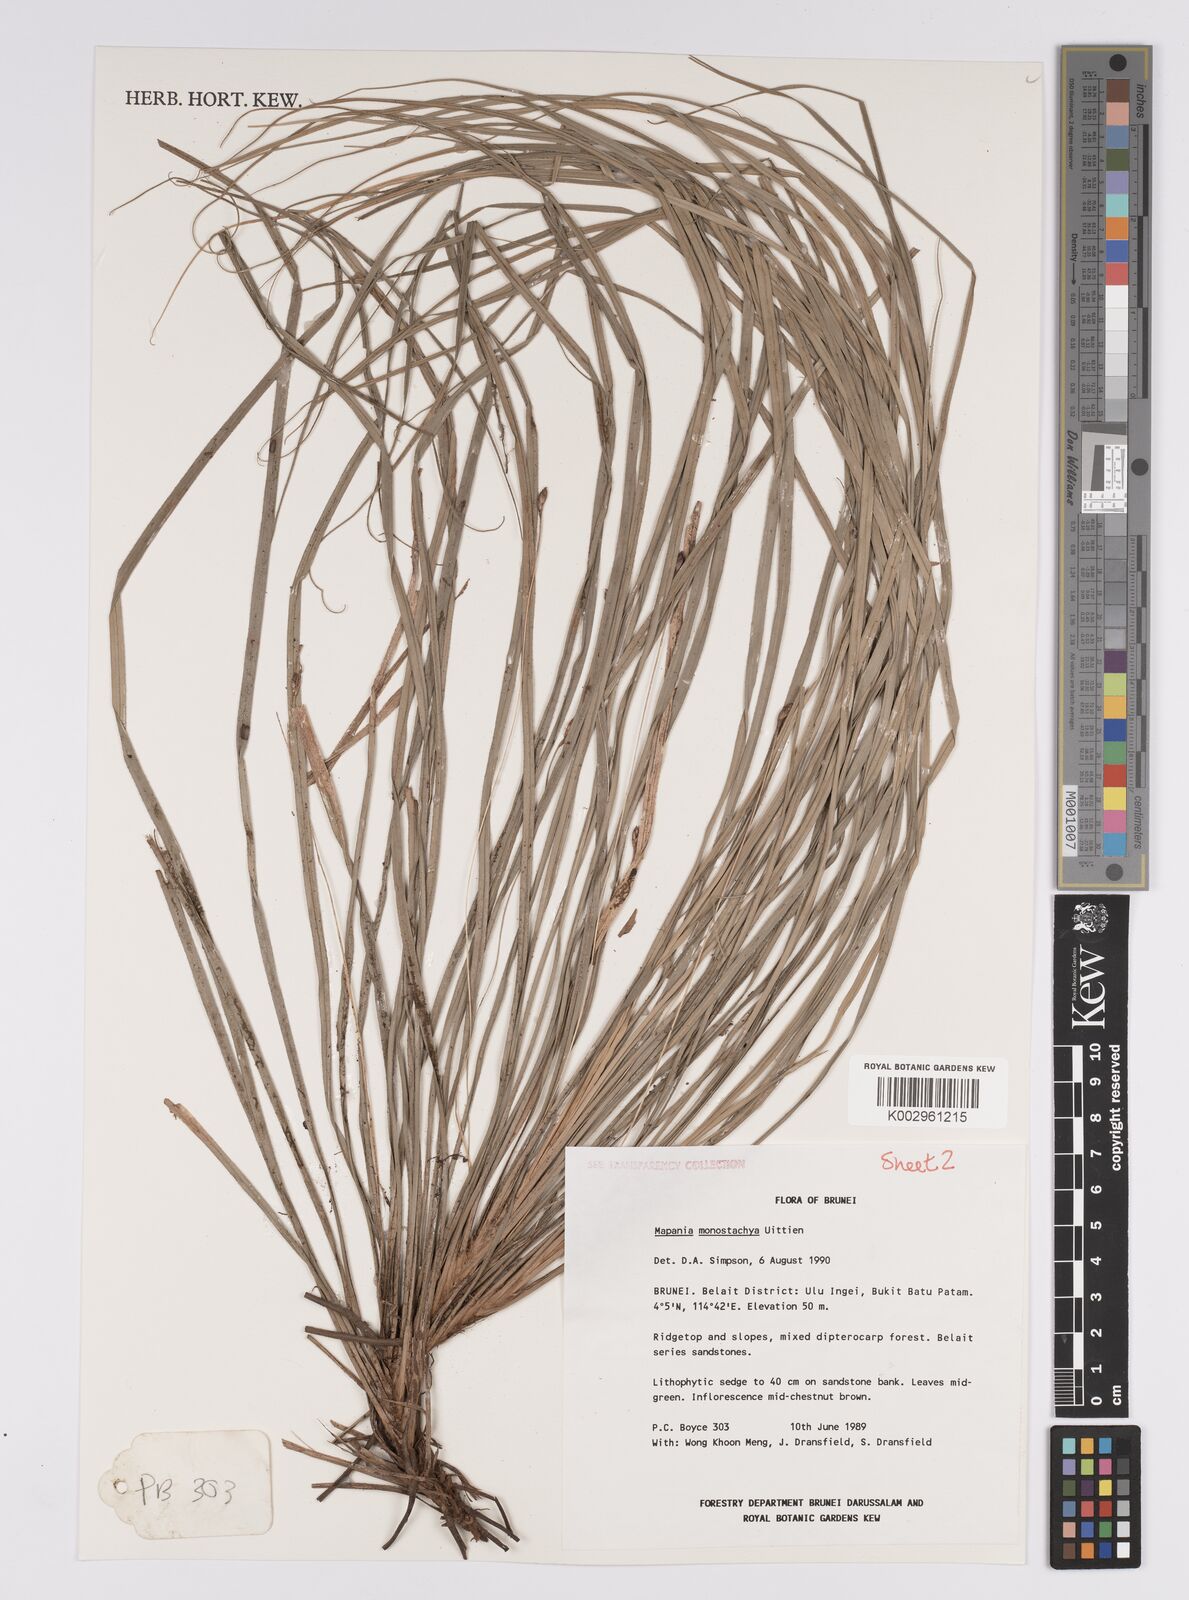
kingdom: Plantae
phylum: Tracheophyta
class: Liliopsida
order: Poales
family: Cyperaceae
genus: Mapania
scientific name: Mapania monostachya
